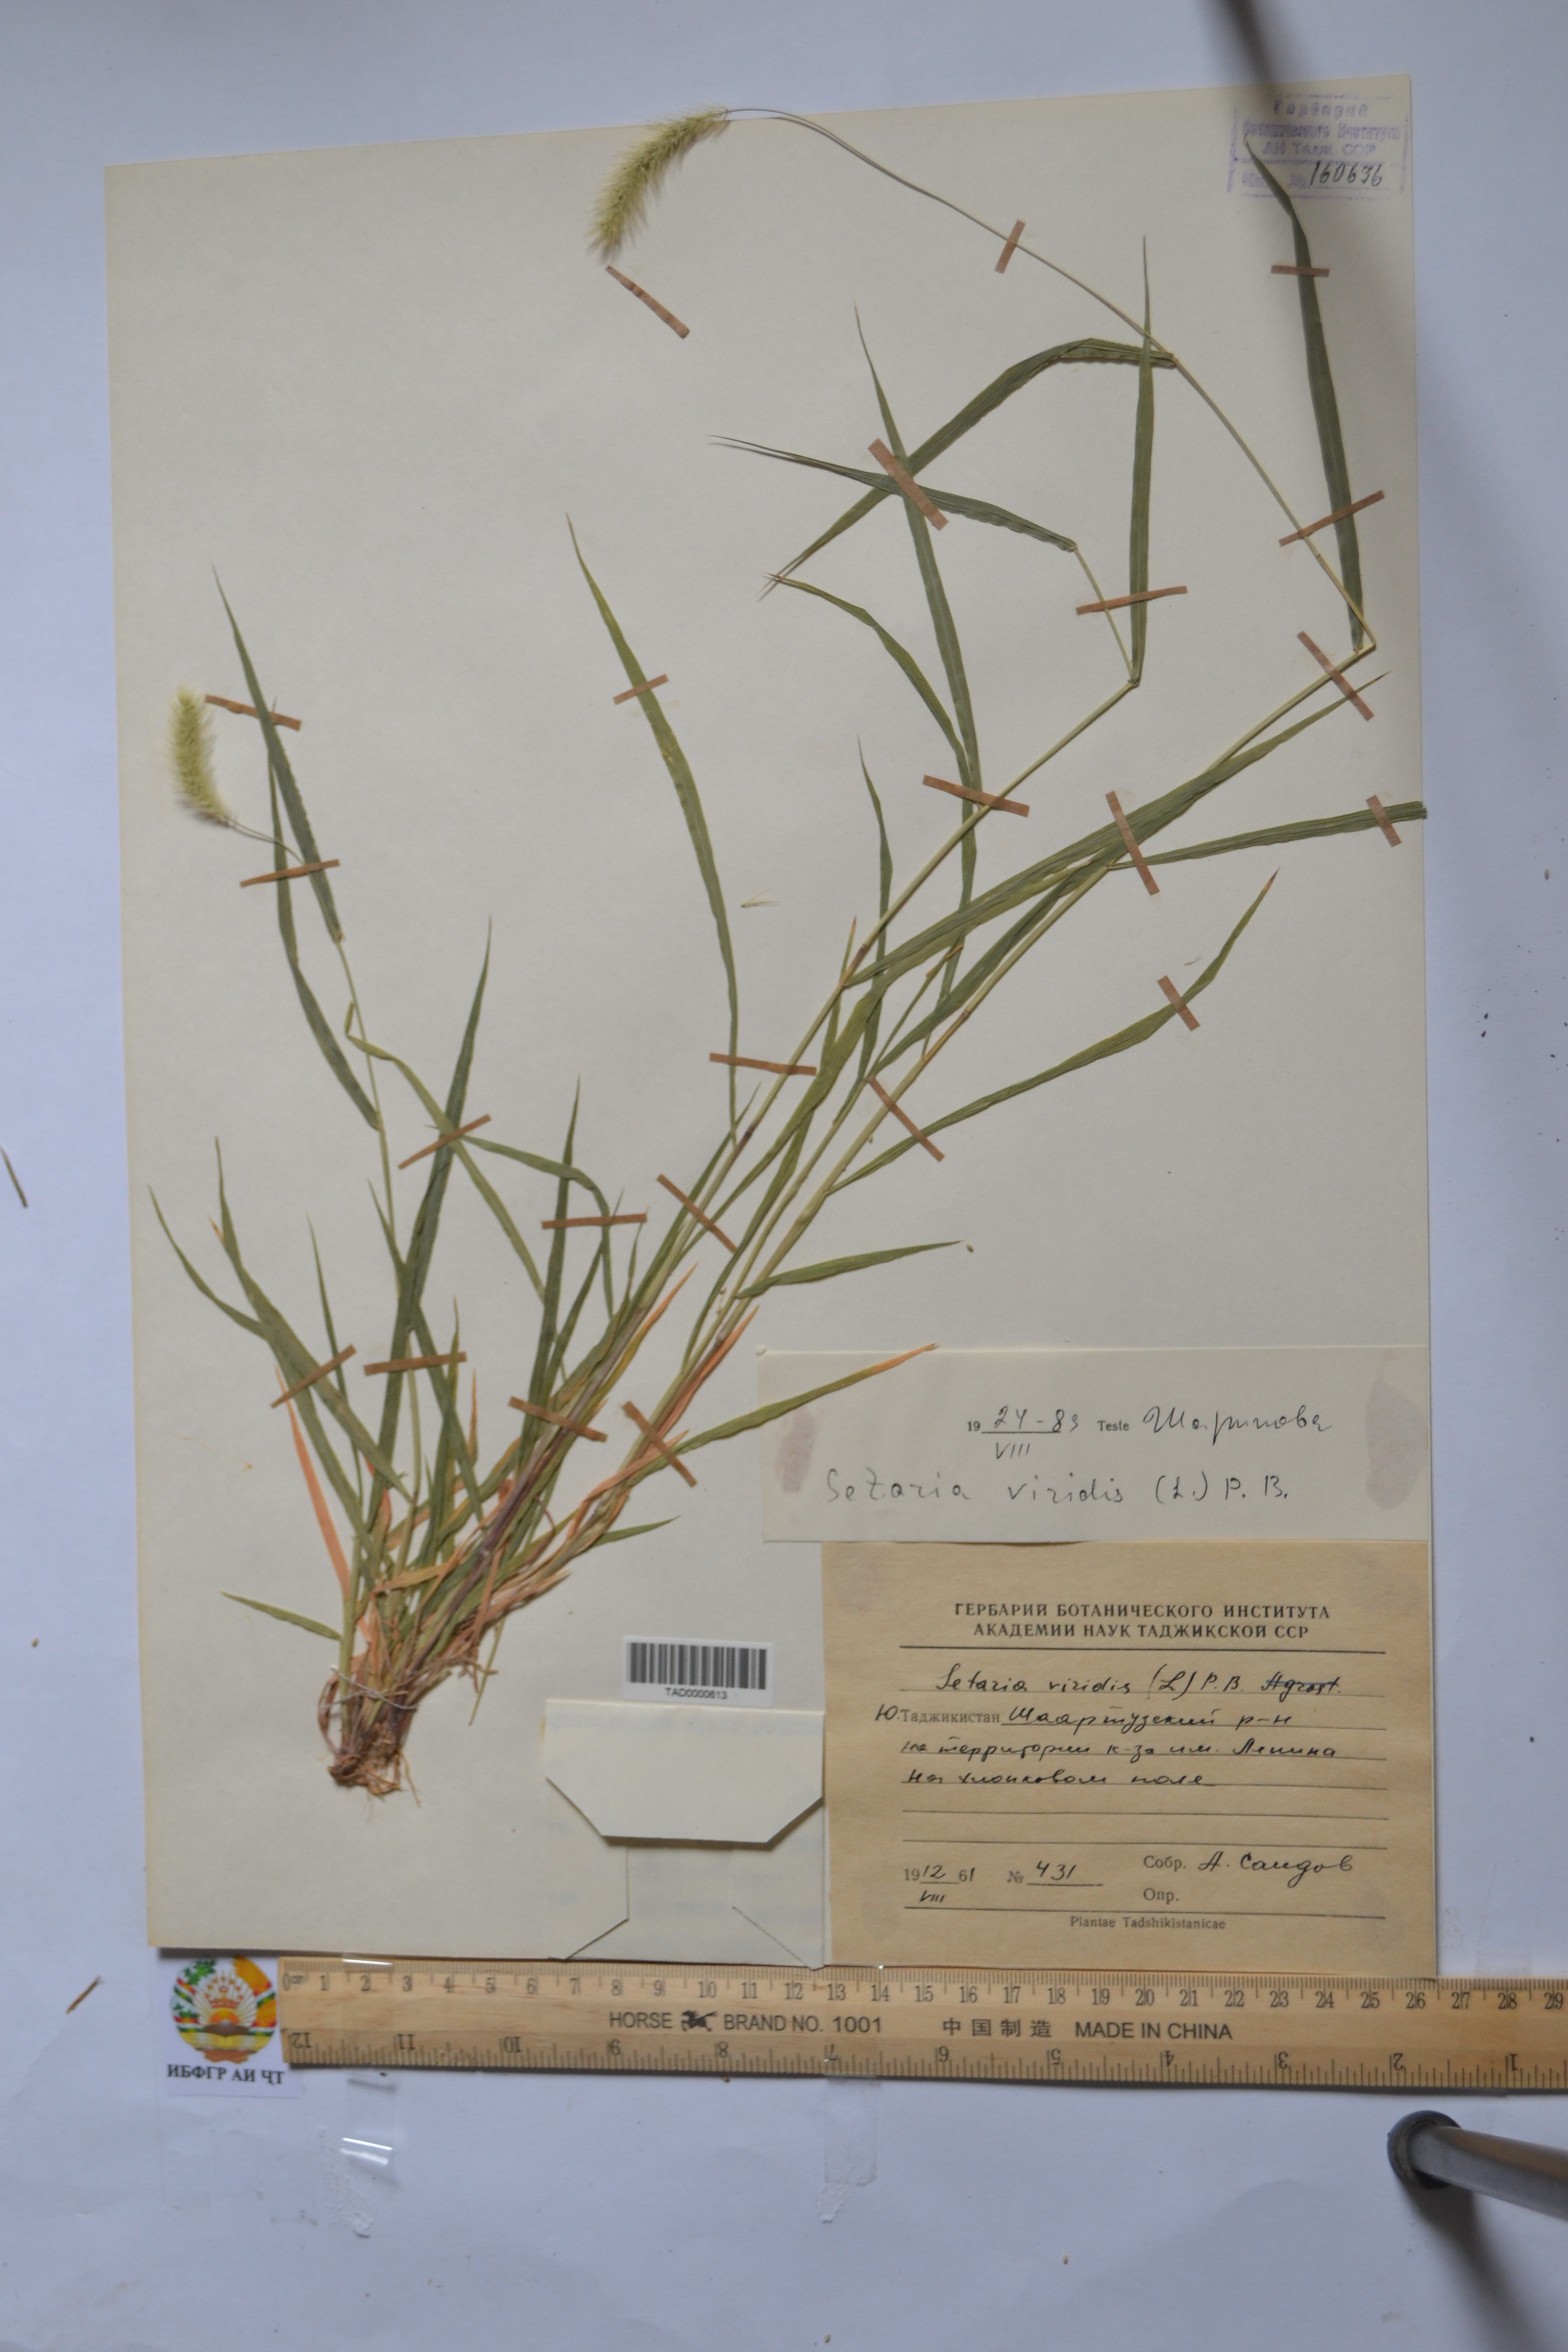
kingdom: Plantae
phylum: Tracheophyta
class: Liliopsida
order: Poales
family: Poaceae
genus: Setaria
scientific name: Setaria viridis
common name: Green bristlegrass
